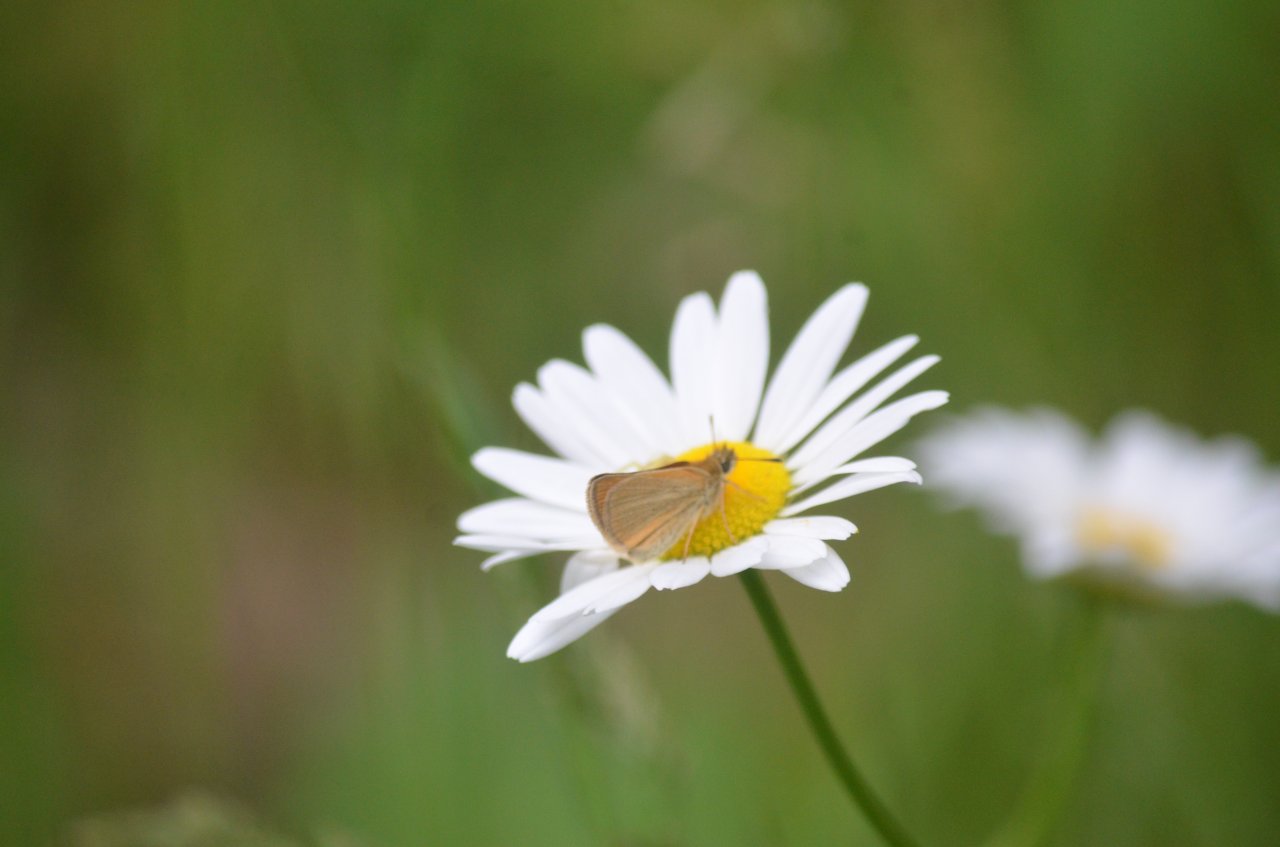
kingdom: Animalia
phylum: Arthropoda
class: Insecta
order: Lepidoptera
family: Hesperiidae
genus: Thymelicus
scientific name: Thymelicus lineola
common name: European Skipper
